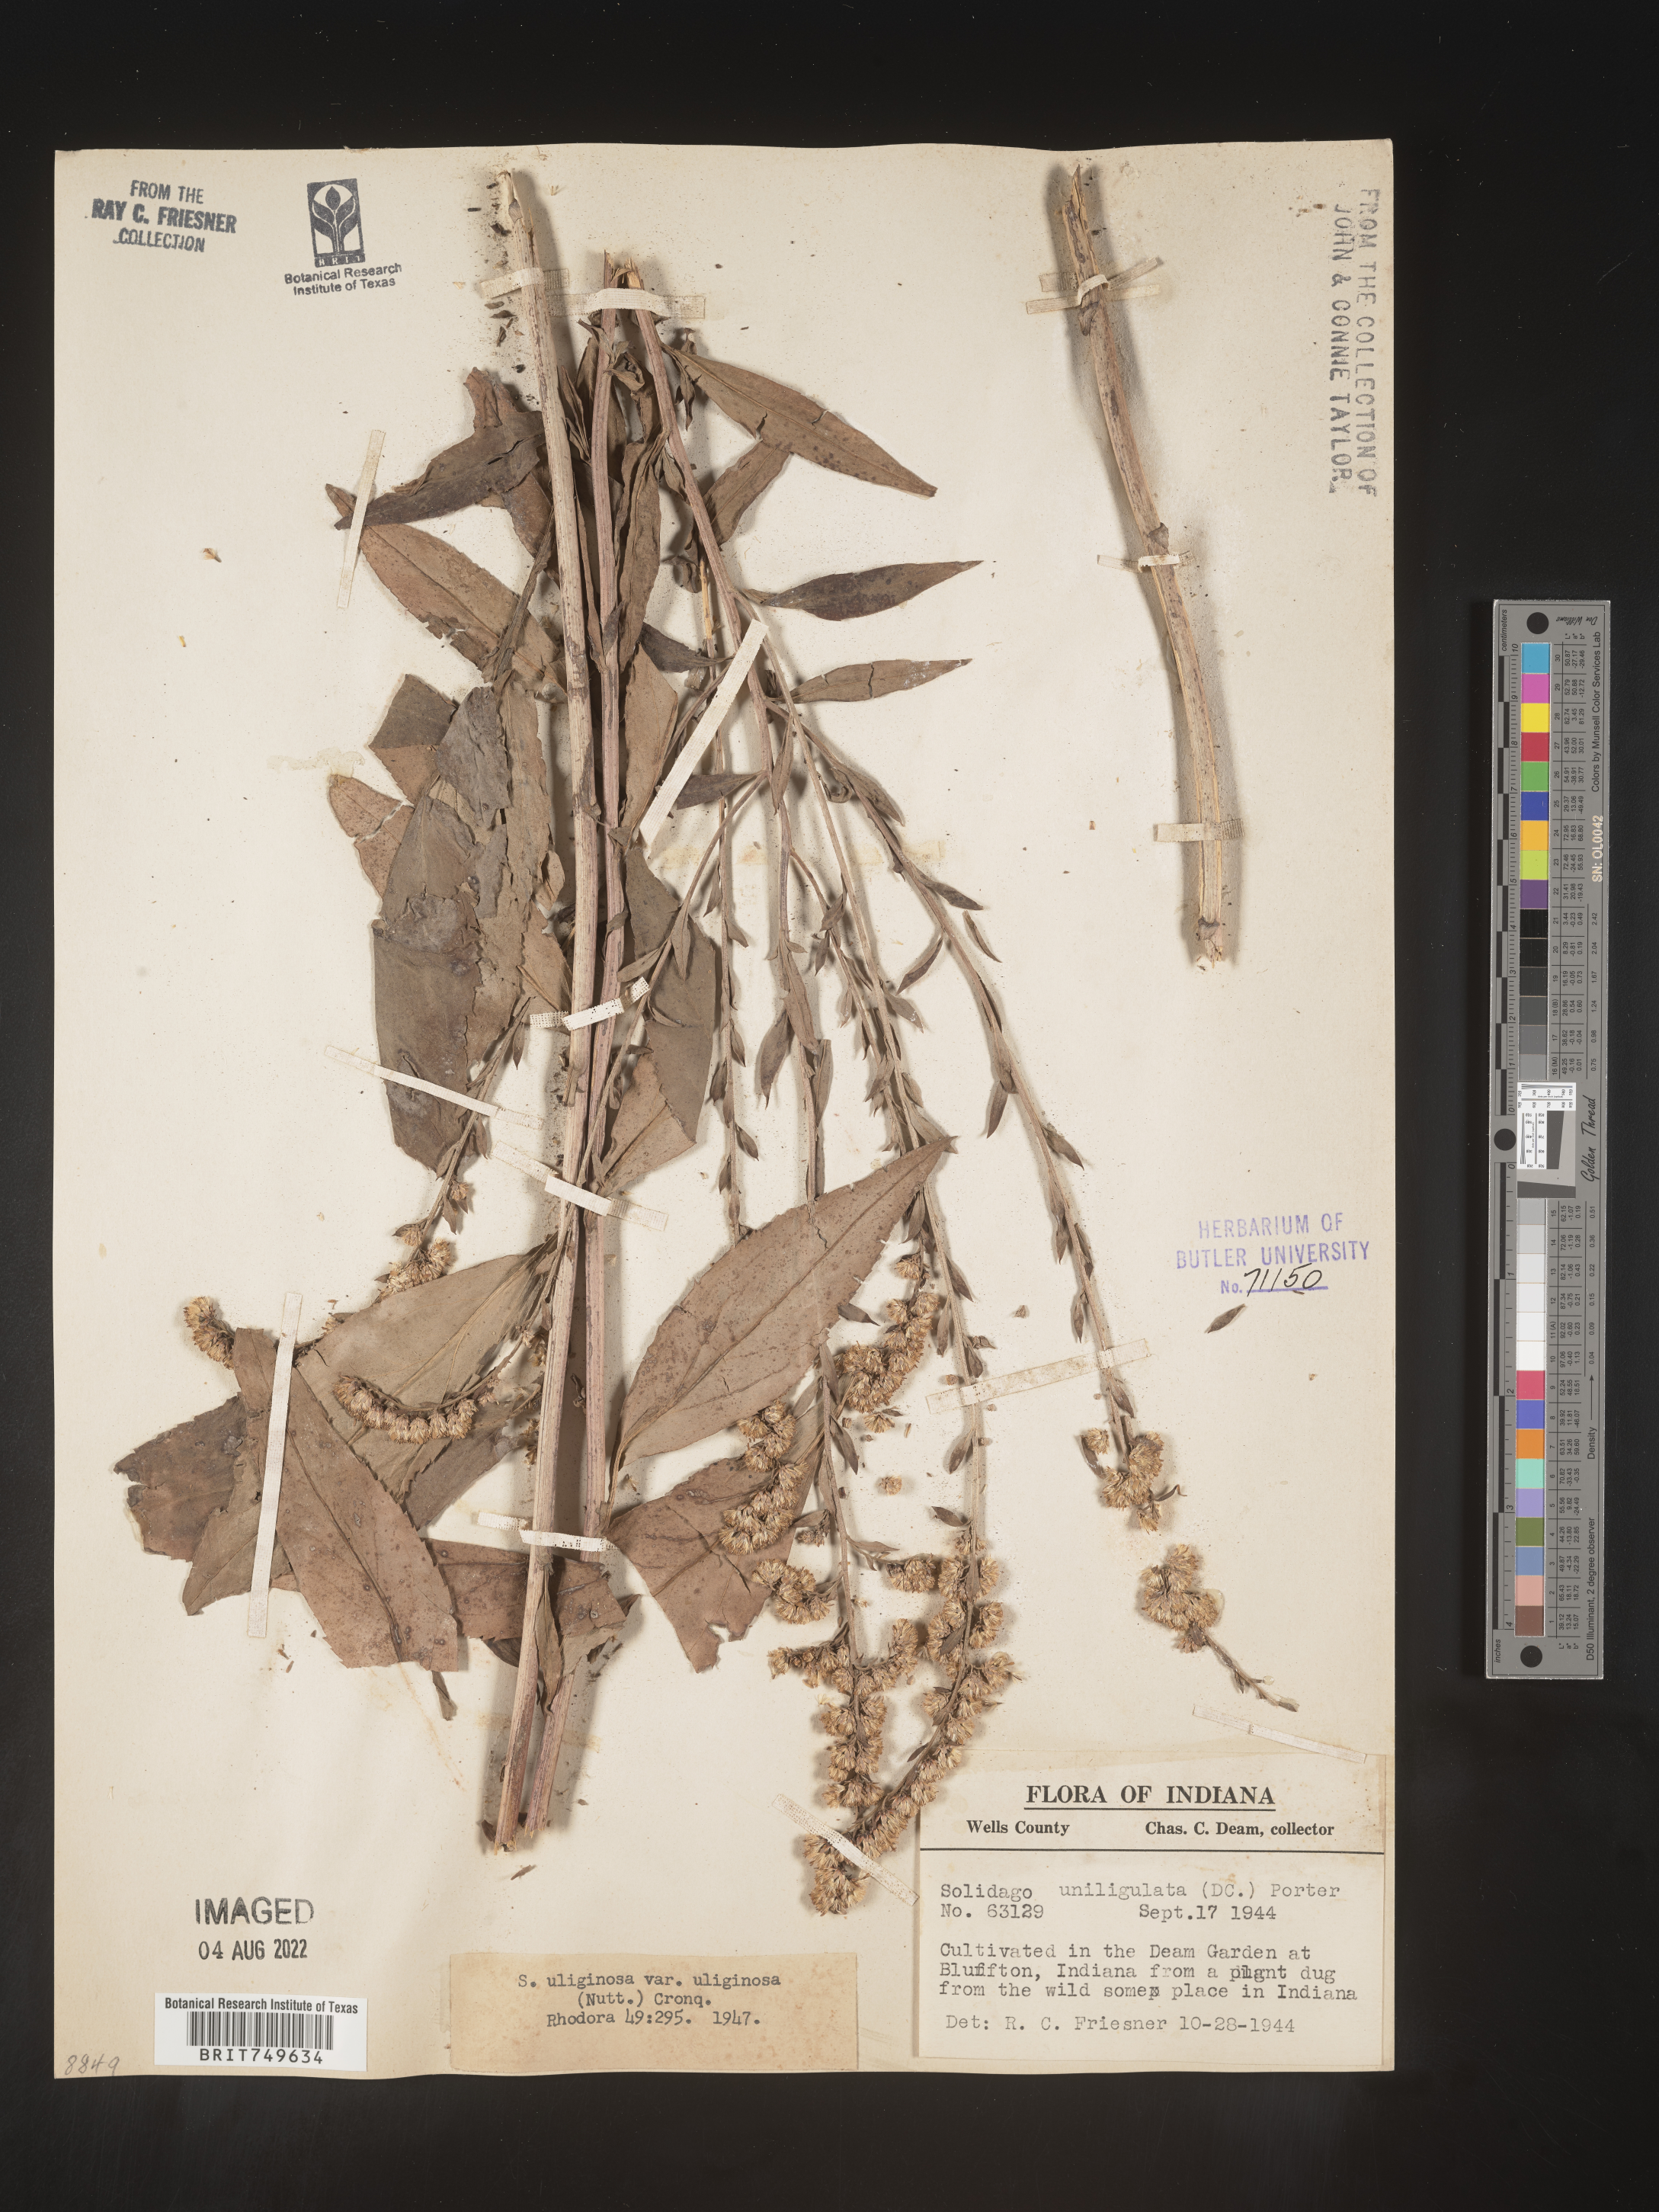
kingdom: Plantae
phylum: Tracheophyta
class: Magnoliopsida
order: Asterales
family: Asteraceae
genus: Solidago
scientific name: Solidago uliginosa
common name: Bog goldenrod
